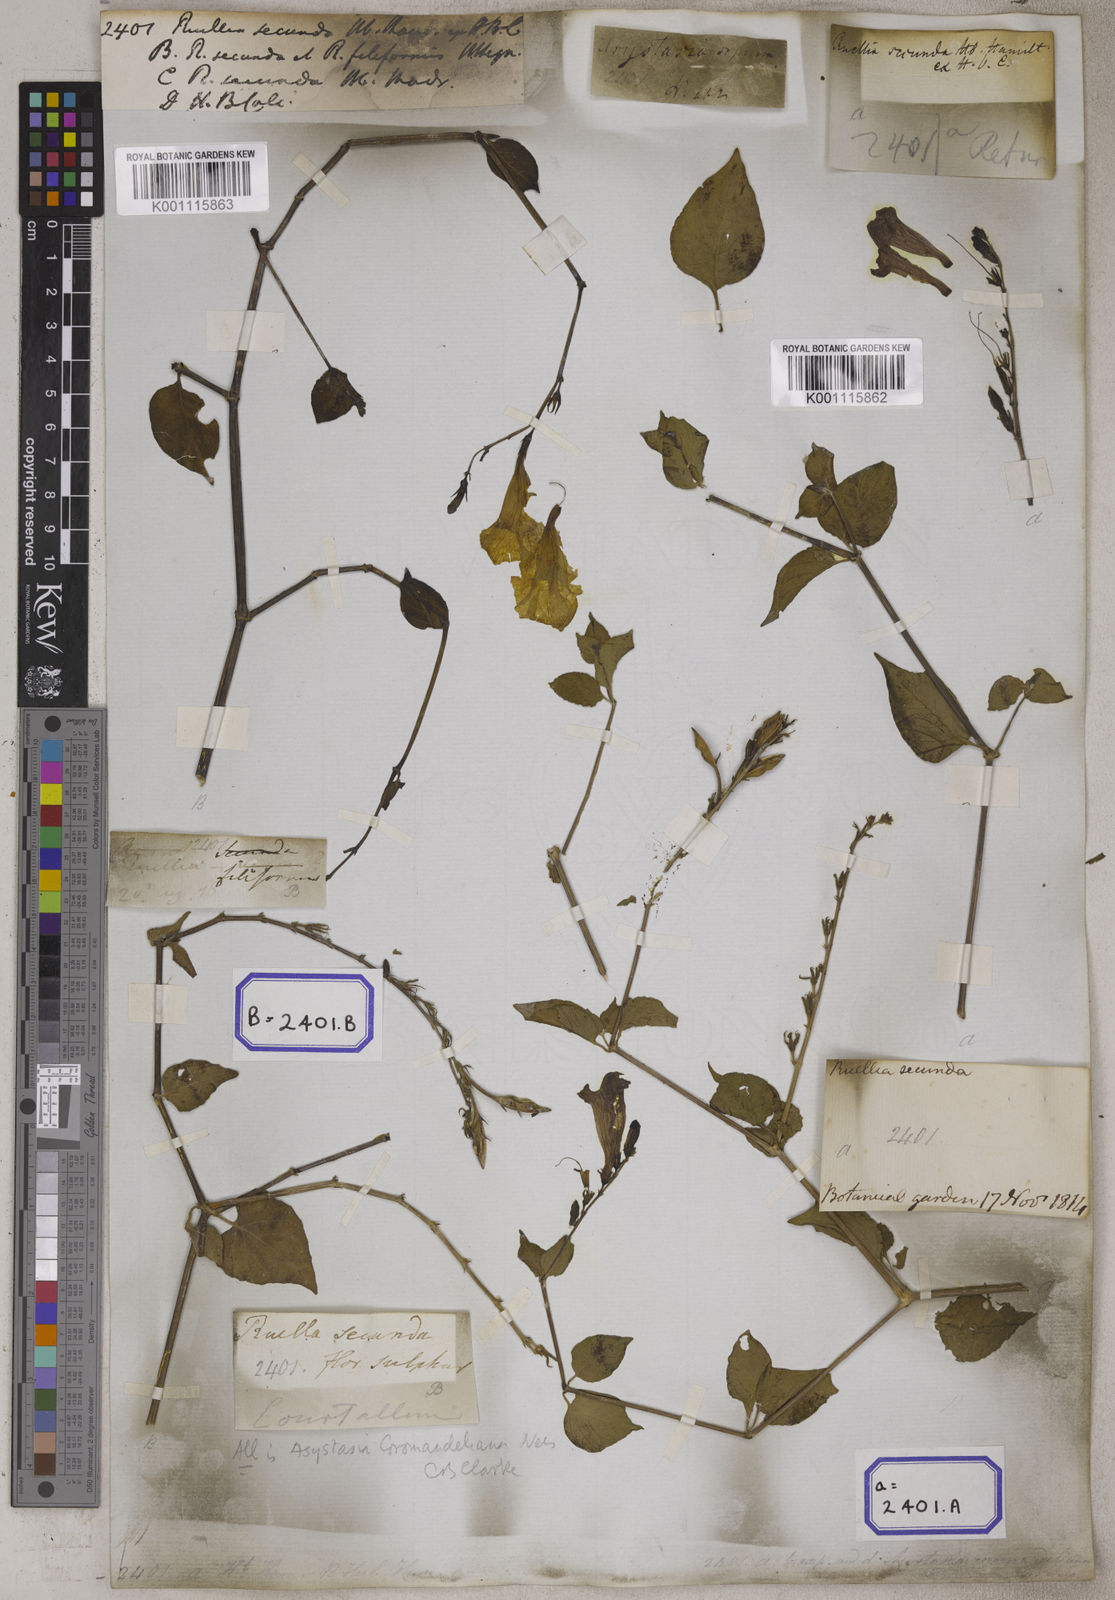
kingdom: Plantae
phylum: Tracheophyta
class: Magnoliopsida
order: Lamiales
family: Acanthaceae
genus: Asystasia
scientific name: Asystasia intrusa
